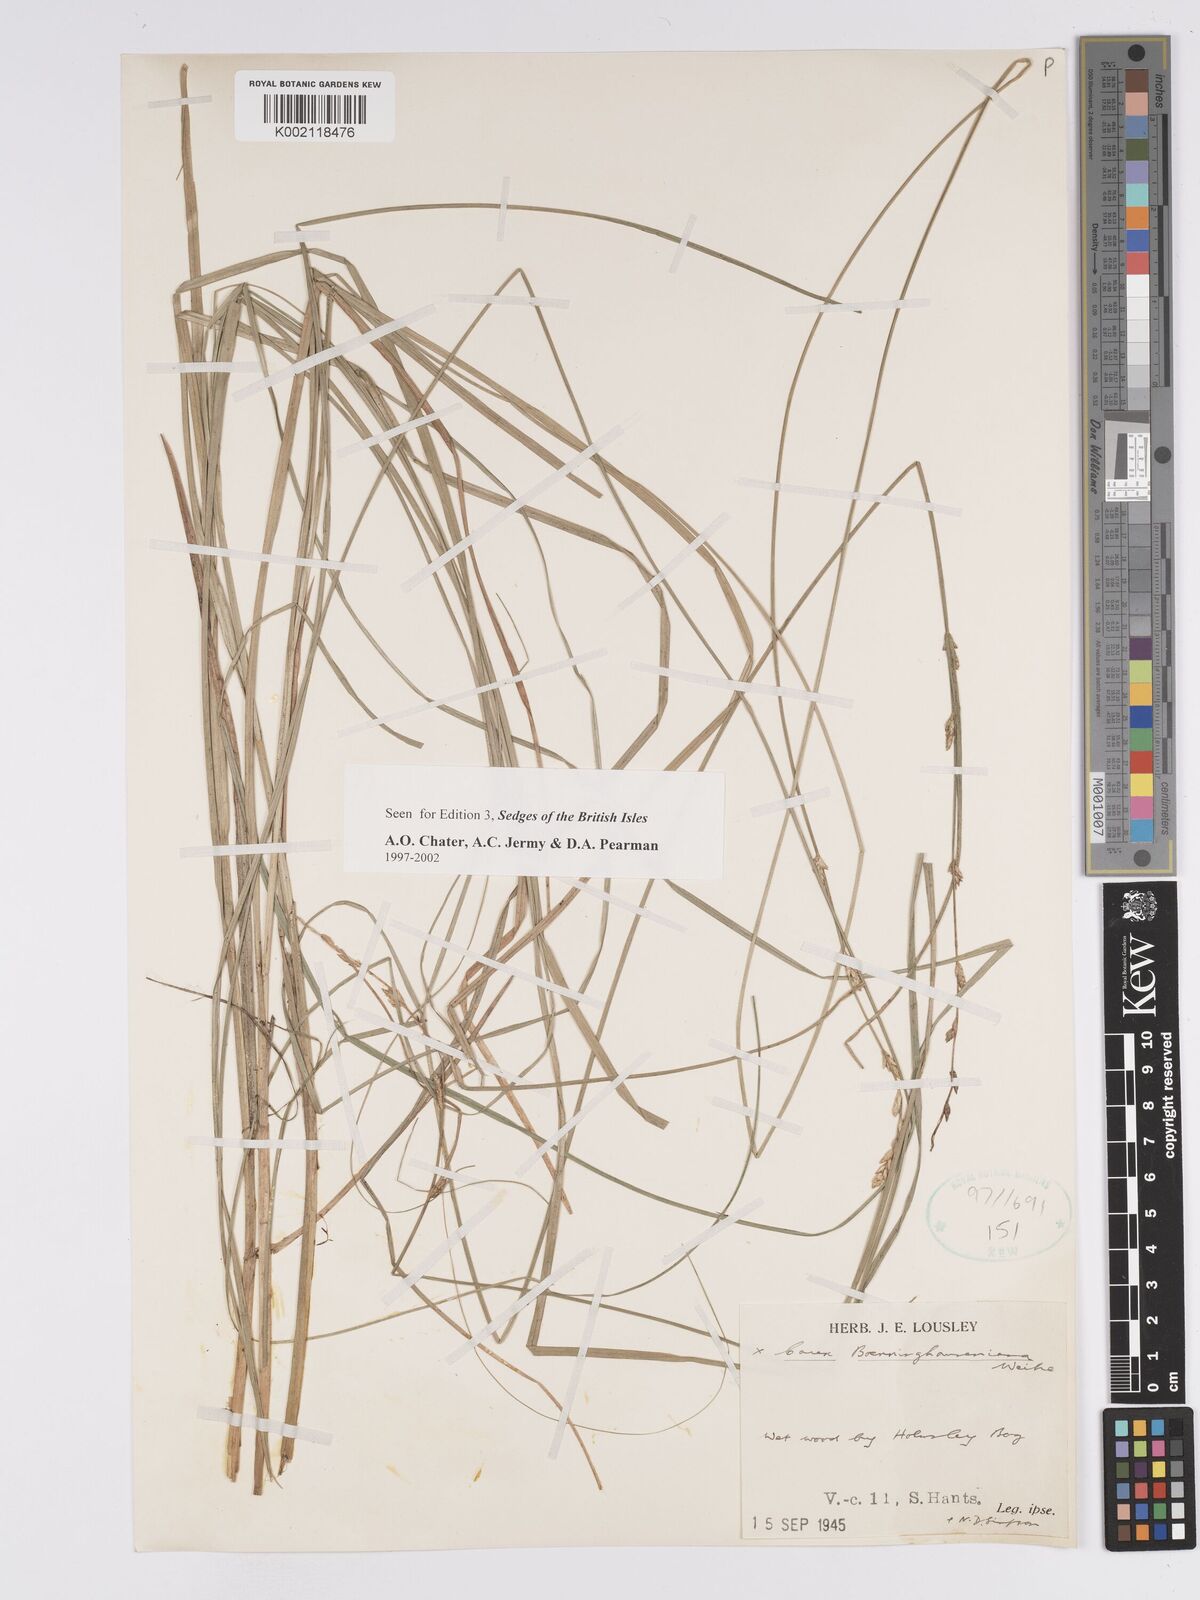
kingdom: Plantae
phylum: Tracheophyta
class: Liliopsida
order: Poales
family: Cyperaceae
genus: Carex
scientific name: Carex boenninghausiana
